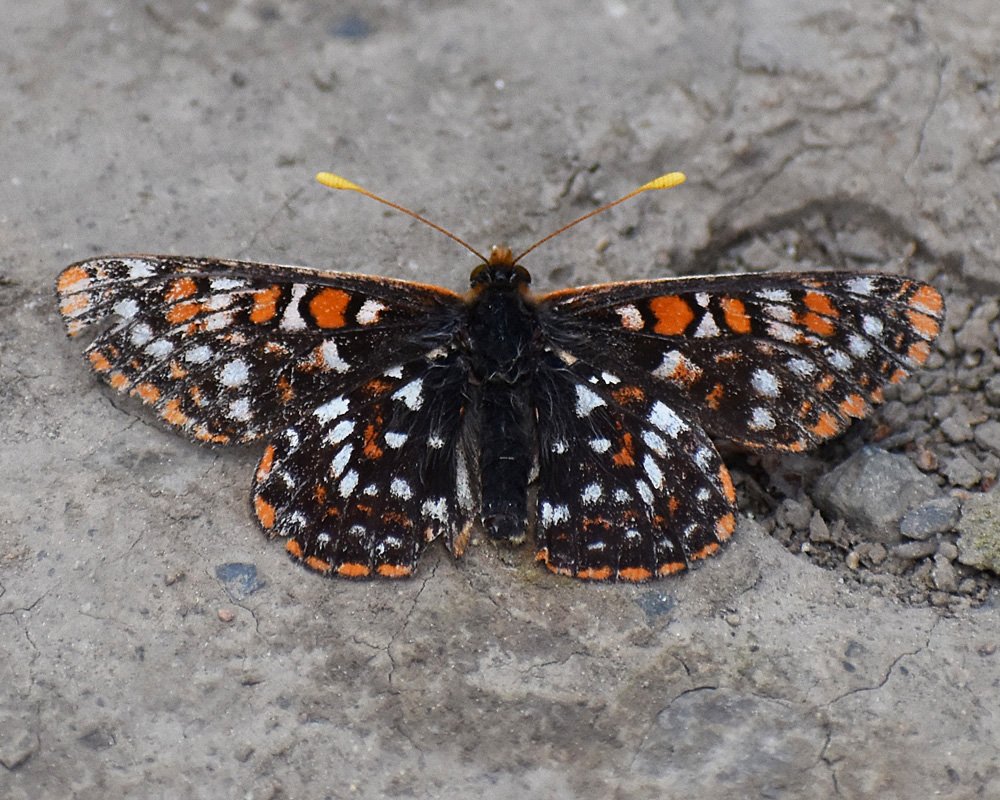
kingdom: Animalia
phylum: Arthropoda
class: Insecta
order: Lepidoptera
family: Nymphalidae
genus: Occidryas
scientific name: Occidryas anicia
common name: Anicia Checkerspot
